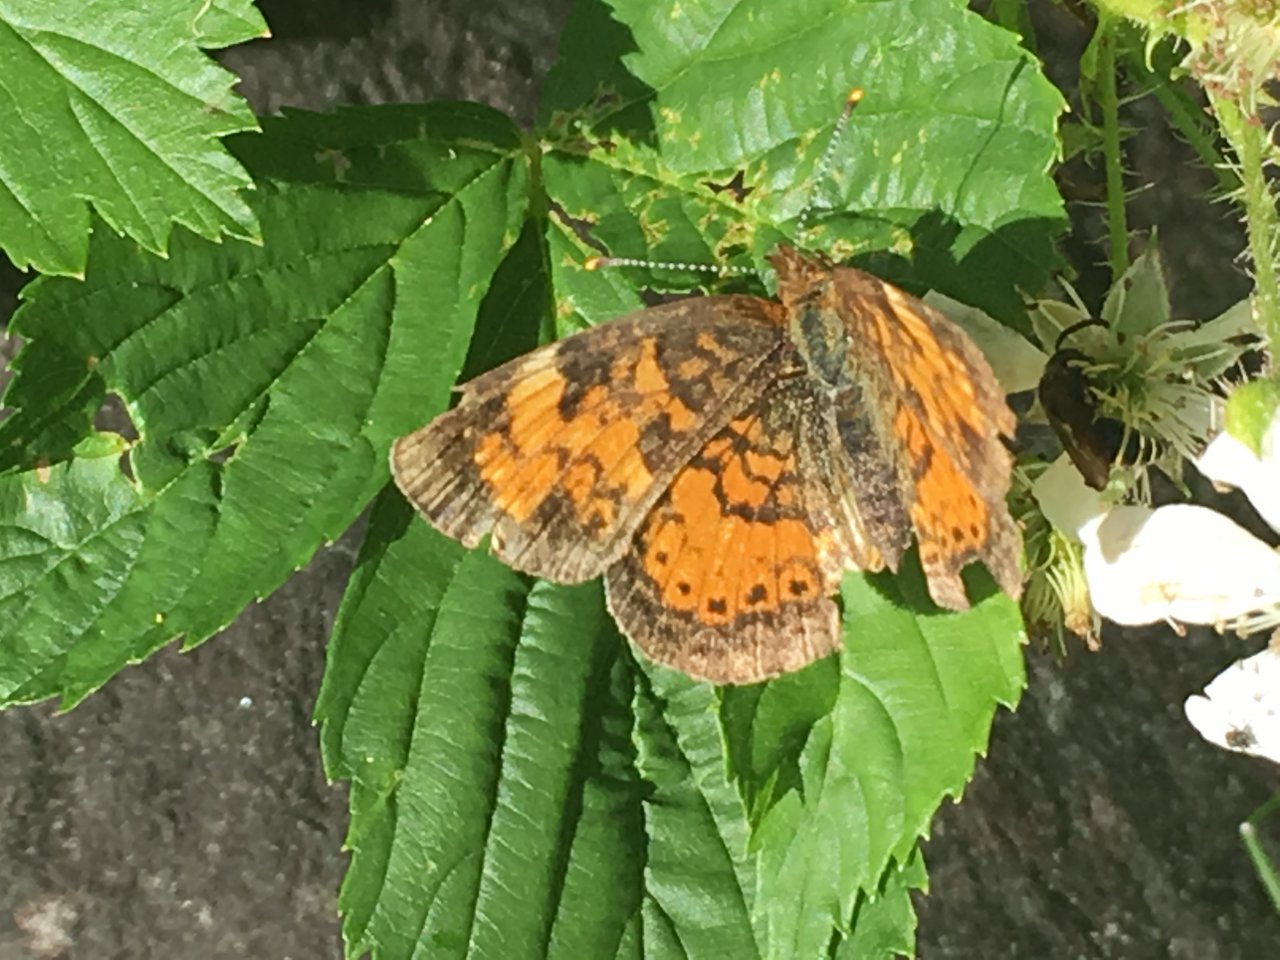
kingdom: Animalia
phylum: Arthropoda
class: Insecta
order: Lepidoptera
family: Nymphalidae
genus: Phyciodes
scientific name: Phyciodes tharos
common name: Pearl Crescent
